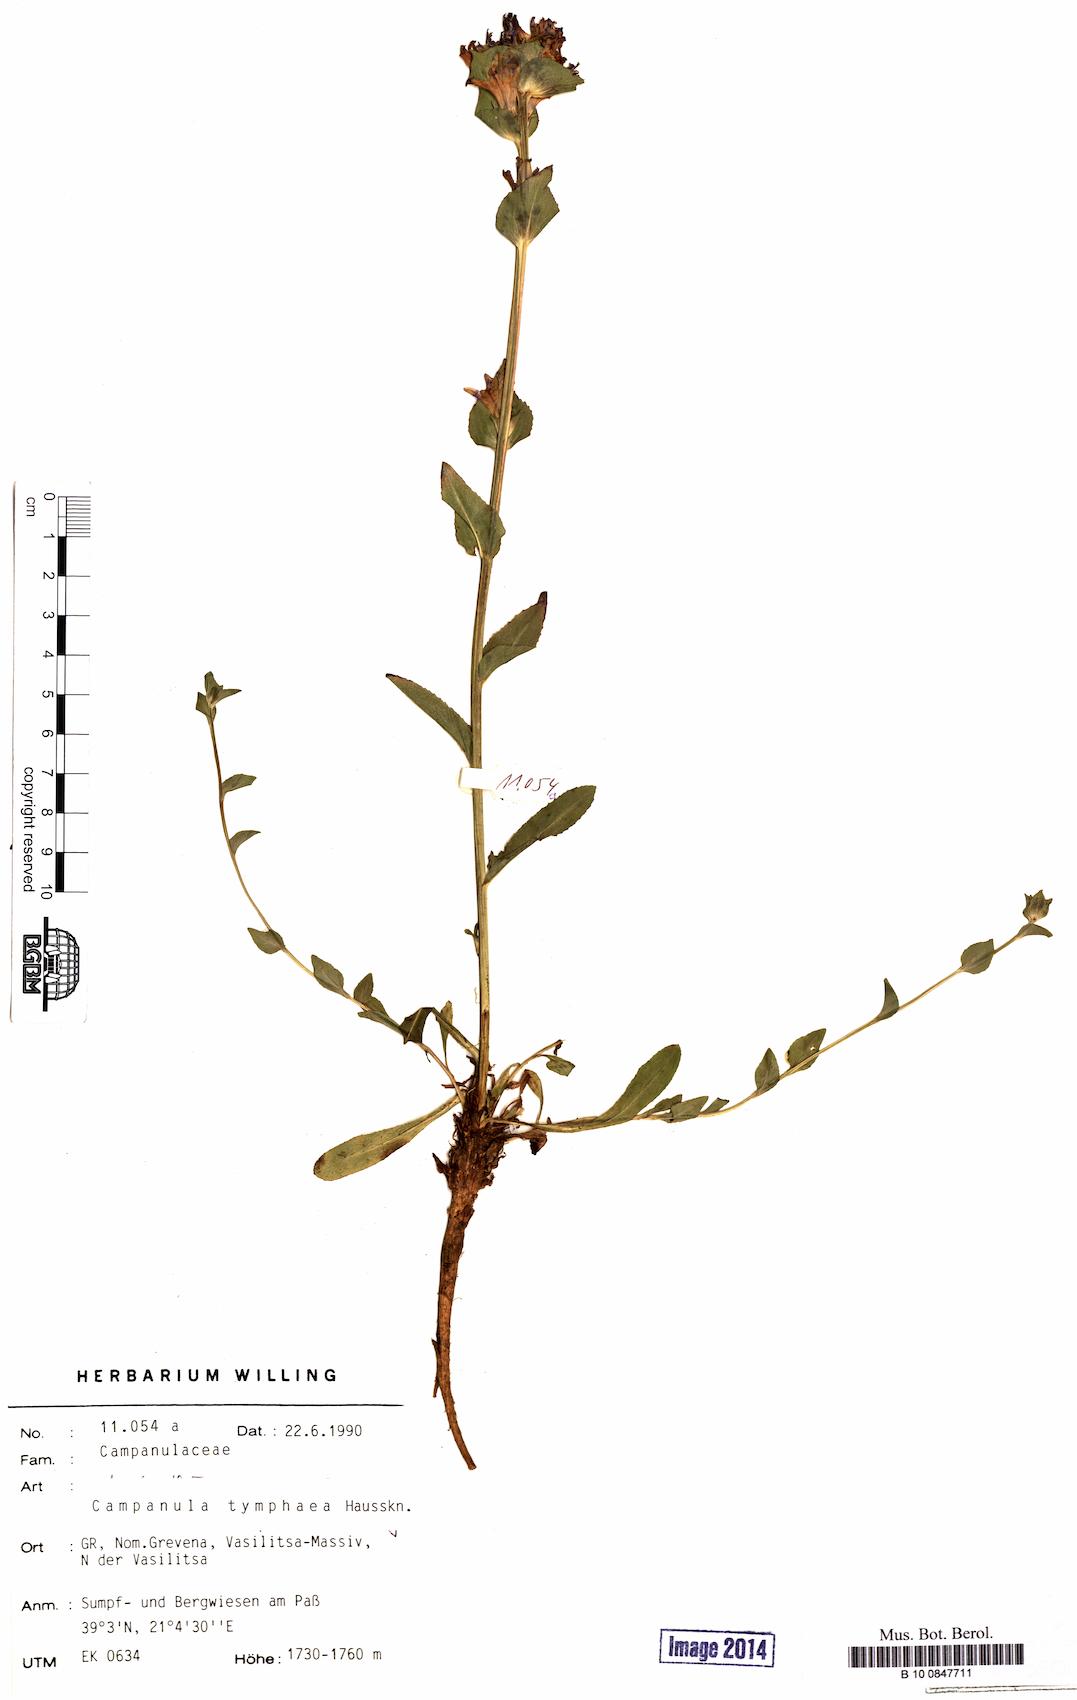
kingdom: Plantae
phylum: Tracheophyta
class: Magnoliopsida
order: Asterales
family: Campanulaceae
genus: Campanula
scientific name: Campanula tymphaea
